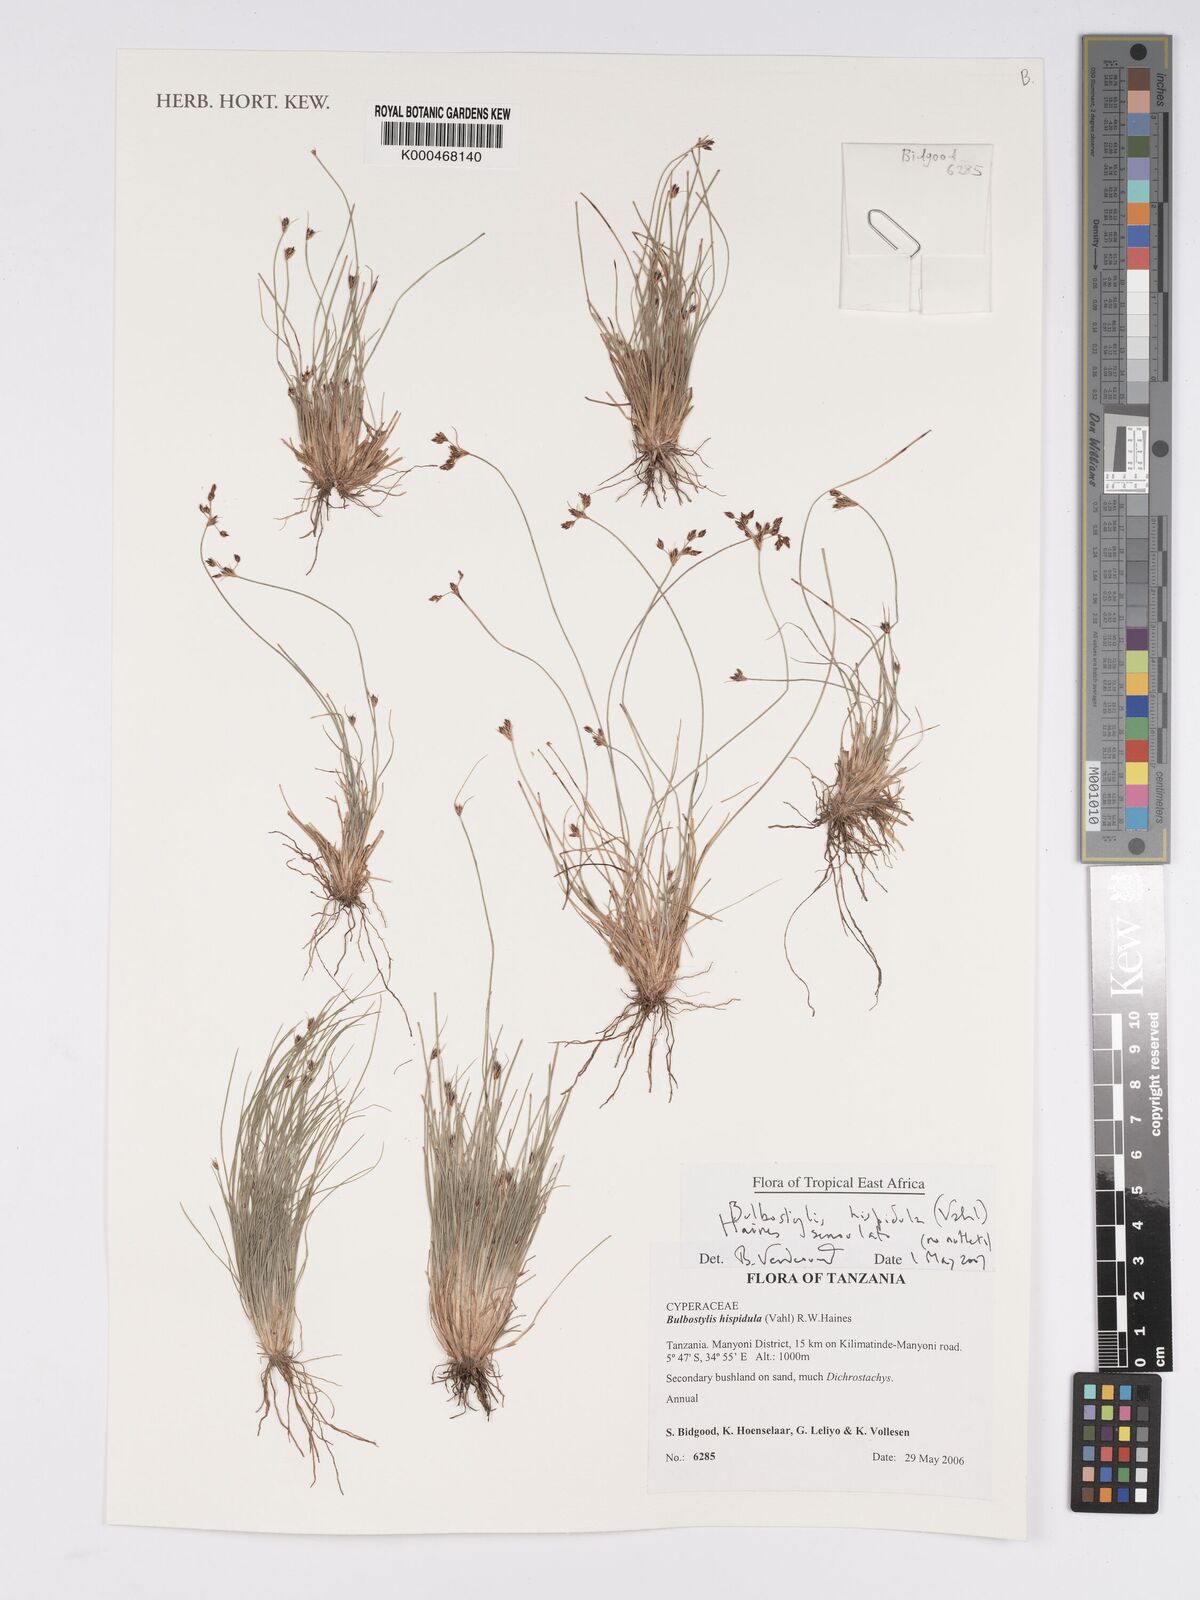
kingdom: Plantae
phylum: Tracheophyta
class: Liliopsida
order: Poales
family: Cyperaceae
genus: Bulbostylis
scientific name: Bulbostylis hispidula
